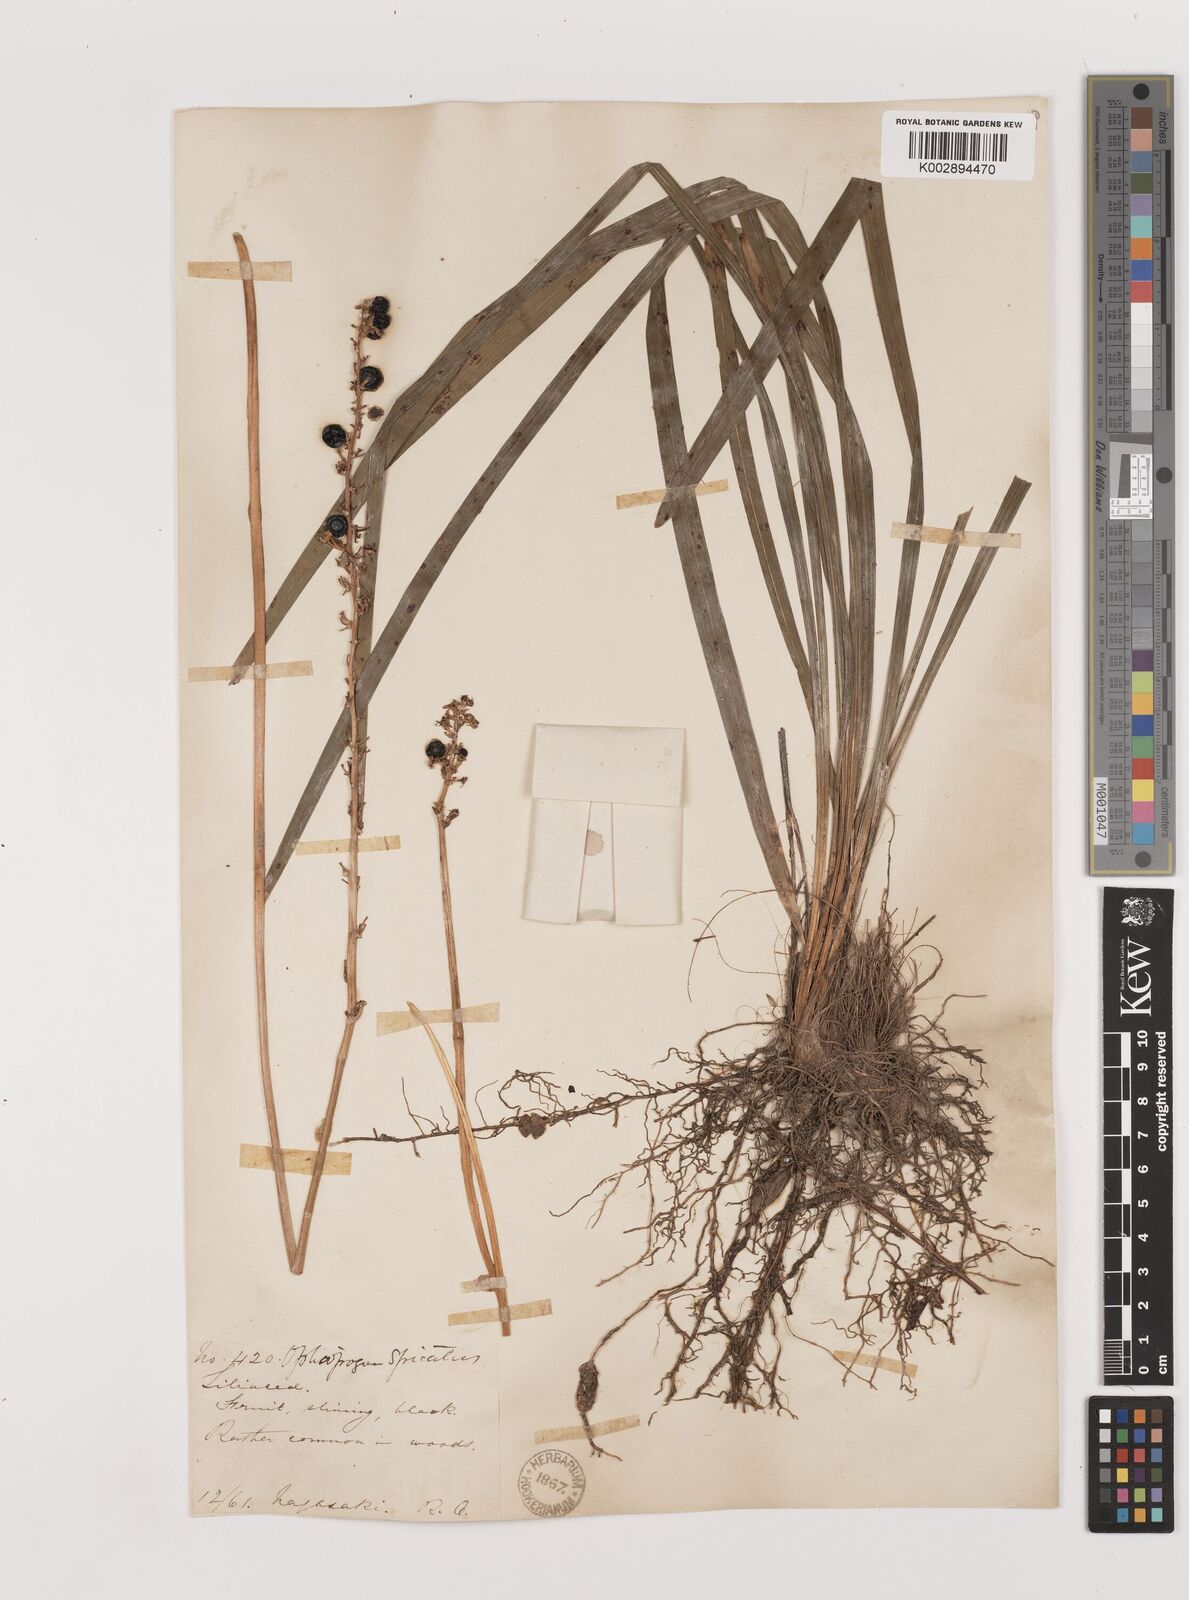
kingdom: Plantae
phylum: Tracheophyta
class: Liliopsida
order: Asparagales
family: Asparagaceae
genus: Liriope
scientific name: Liriope muscari
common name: Big blue lilyturf
